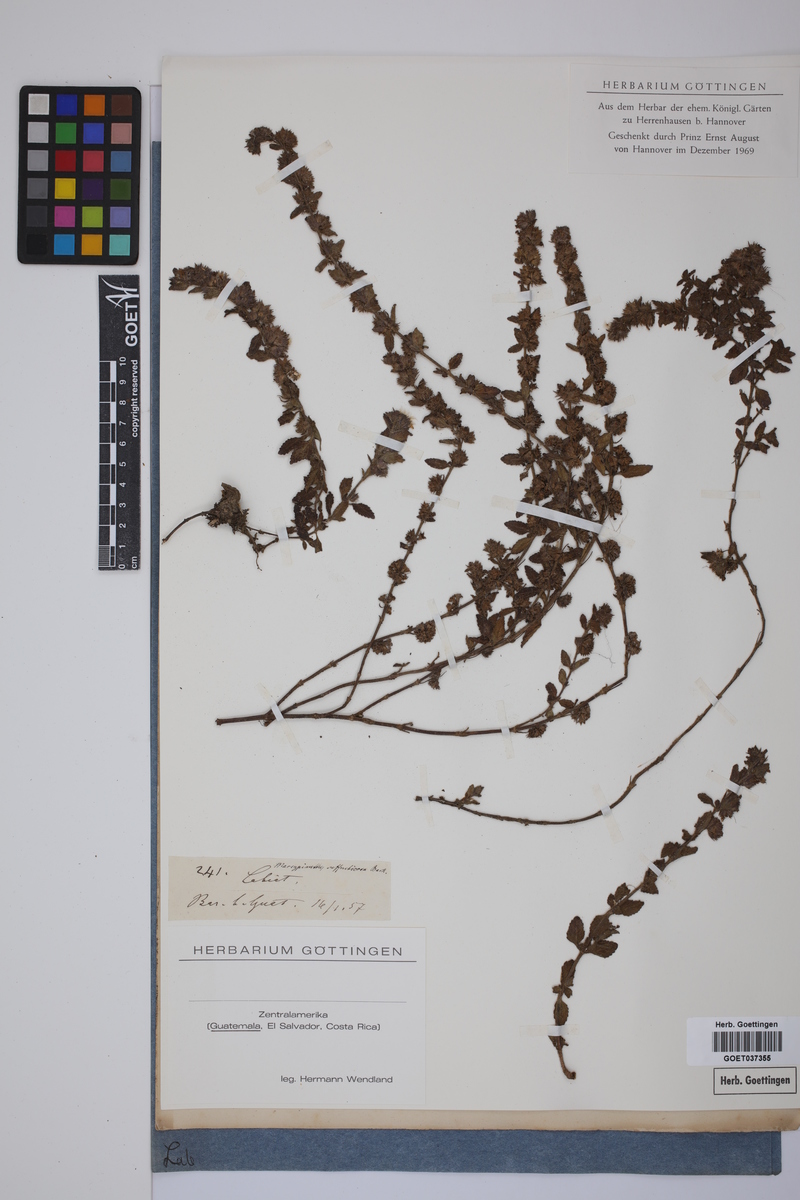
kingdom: Plantae
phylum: Tracheophyta
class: Magnoliopsida
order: Lamiales
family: Lamiaceae
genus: Marsypianthes
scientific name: Marsypianthes
